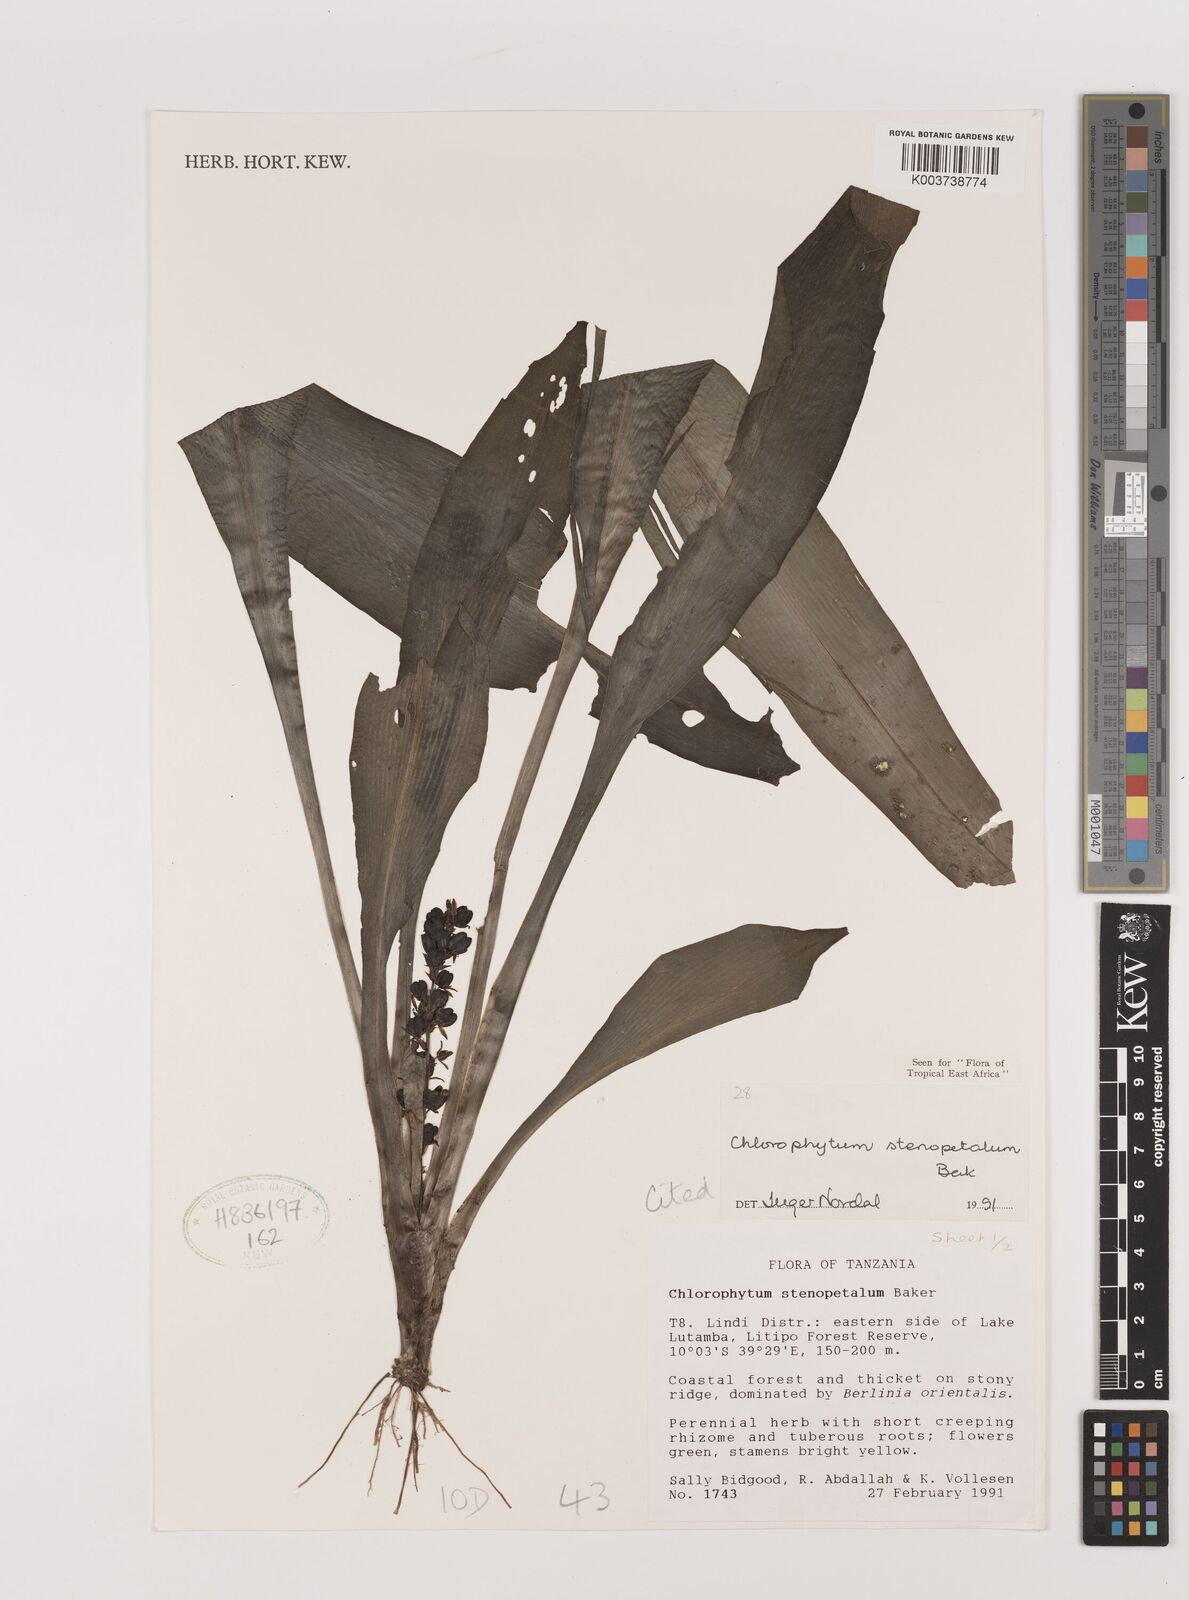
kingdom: Plantae
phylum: Tracheophyta
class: Liliopsida
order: Asparagales
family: Asparagaceae
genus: Chlorophytum
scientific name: Chlorophytum stenopetalum
